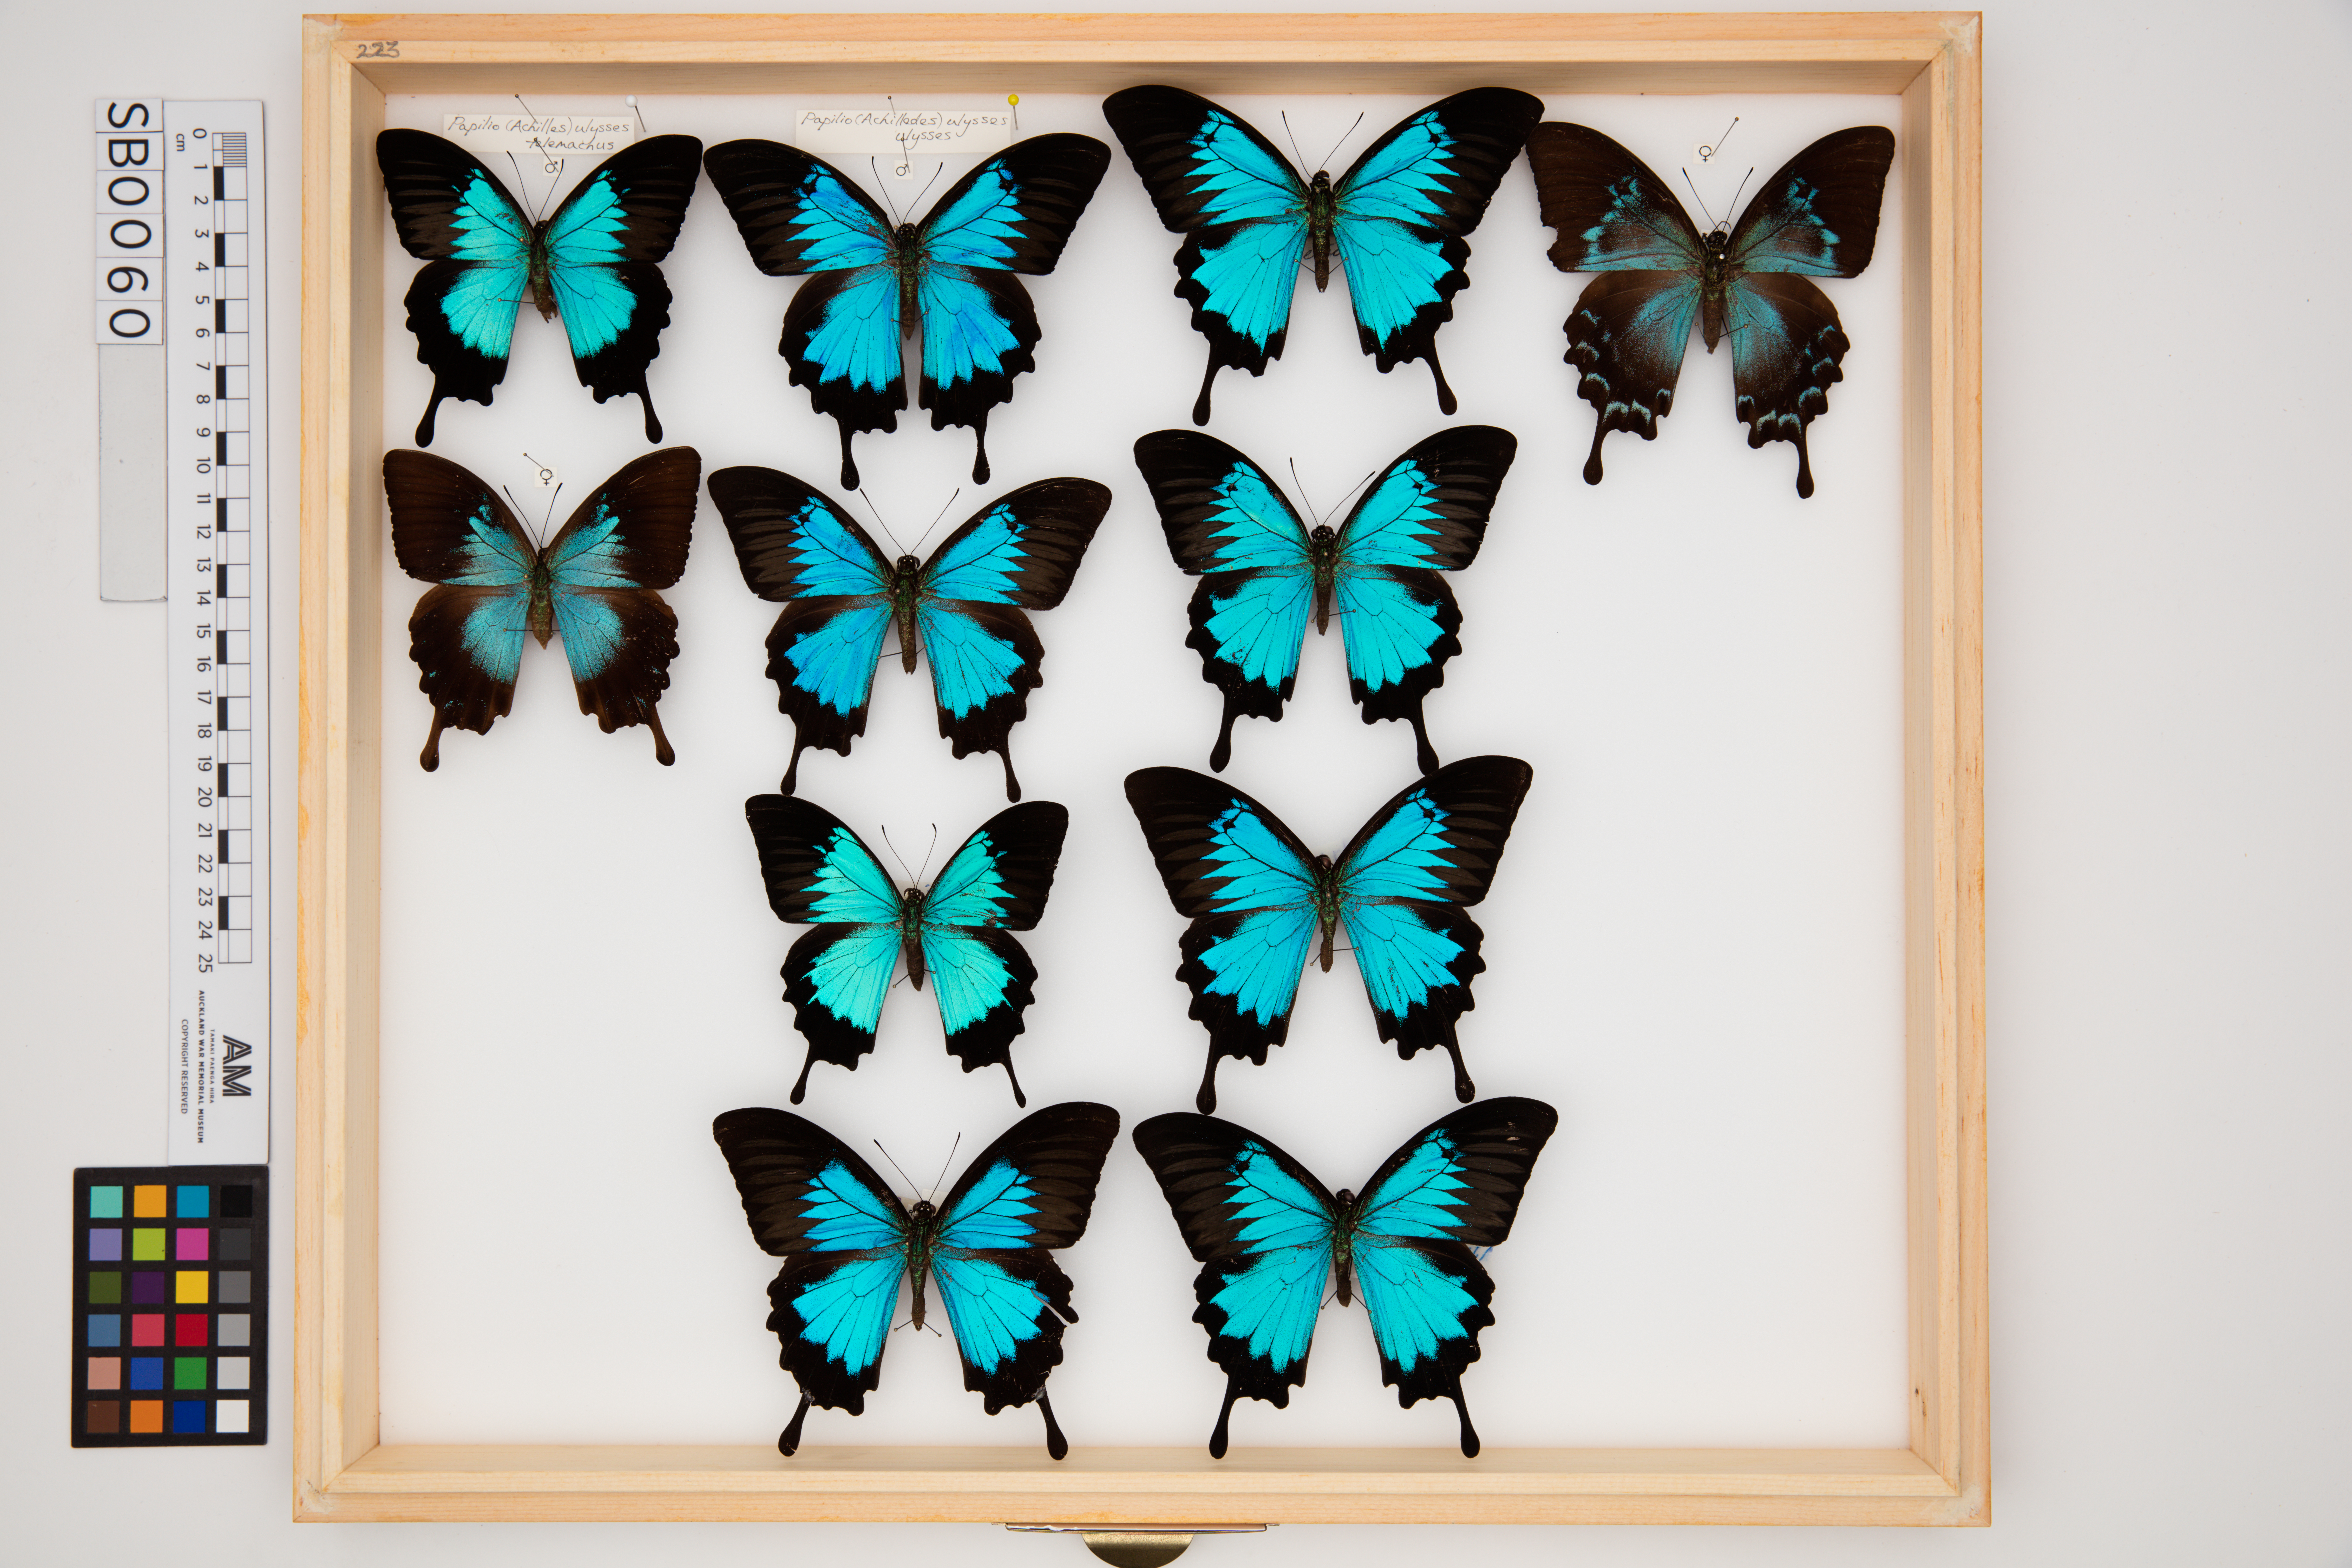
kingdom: Animalia
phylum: Arthropoda
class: Insecta
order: Lepidoptera
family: Papilionidae
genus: Papilio
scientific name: Papilio ulysses
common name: Blue emperor
